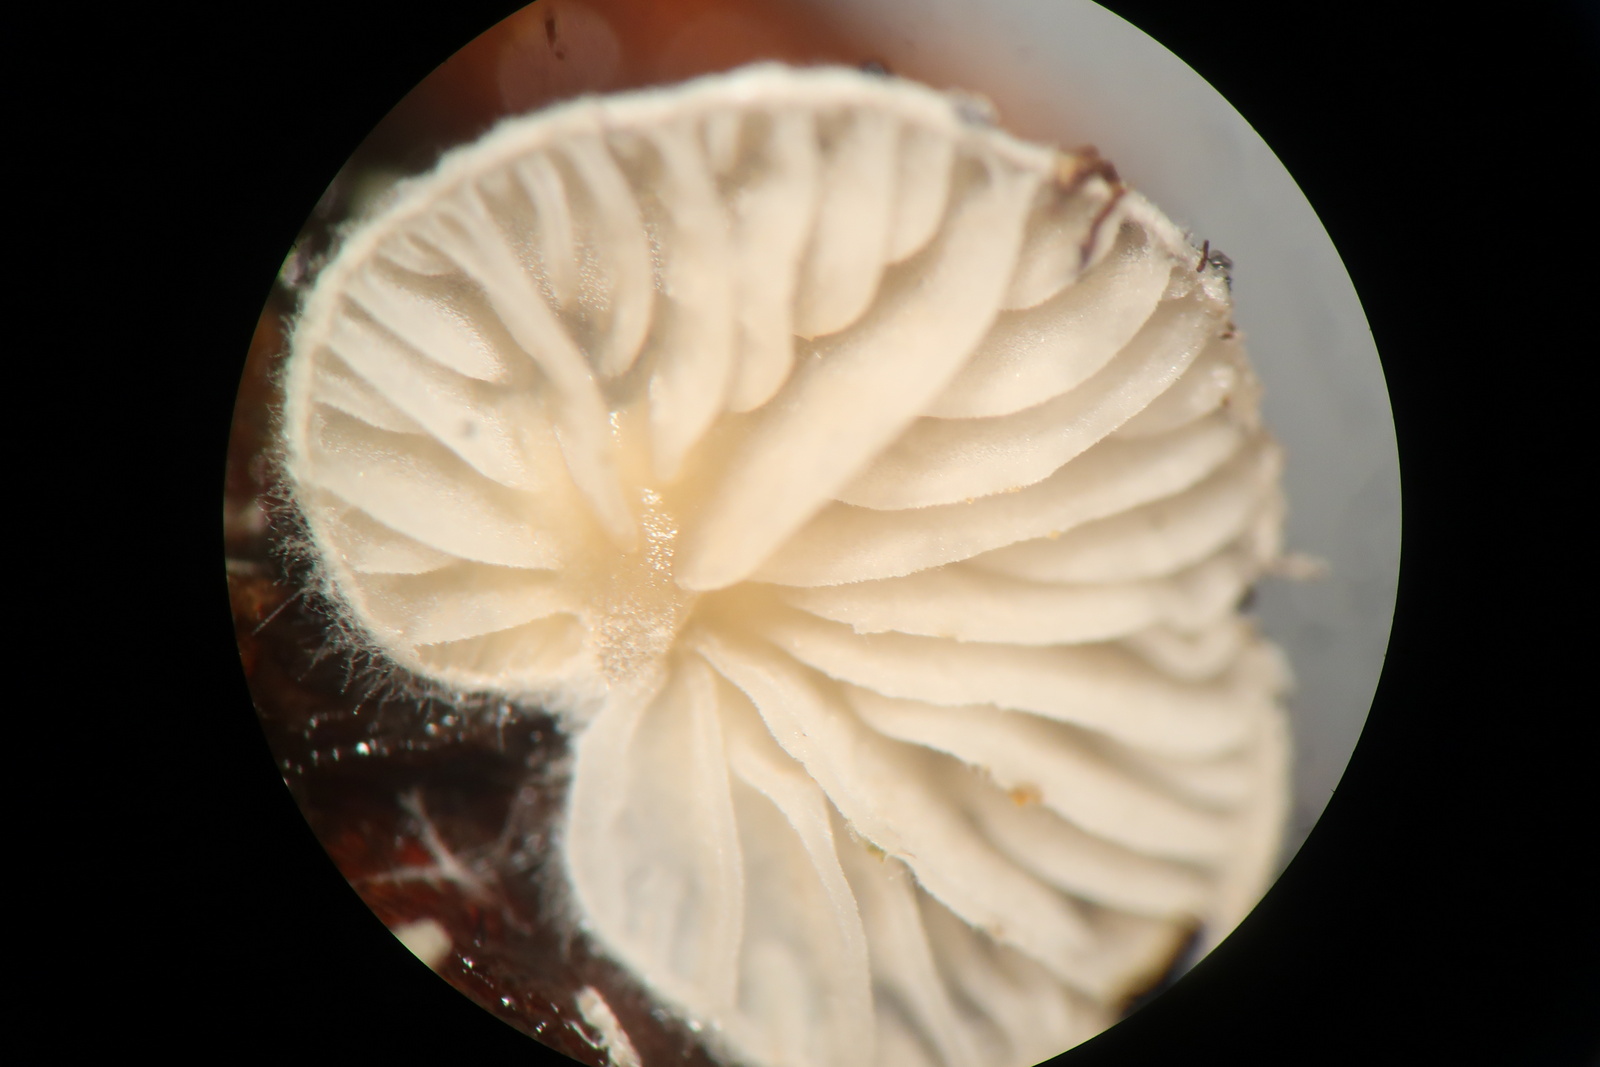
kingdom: Fungi
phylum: Basidiomycota
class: Agaricomycetes
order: Agaricales
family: Entolomataceae
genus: Clitopilus
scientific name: Clitopilus hobsonii
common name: Miller's oysterling
